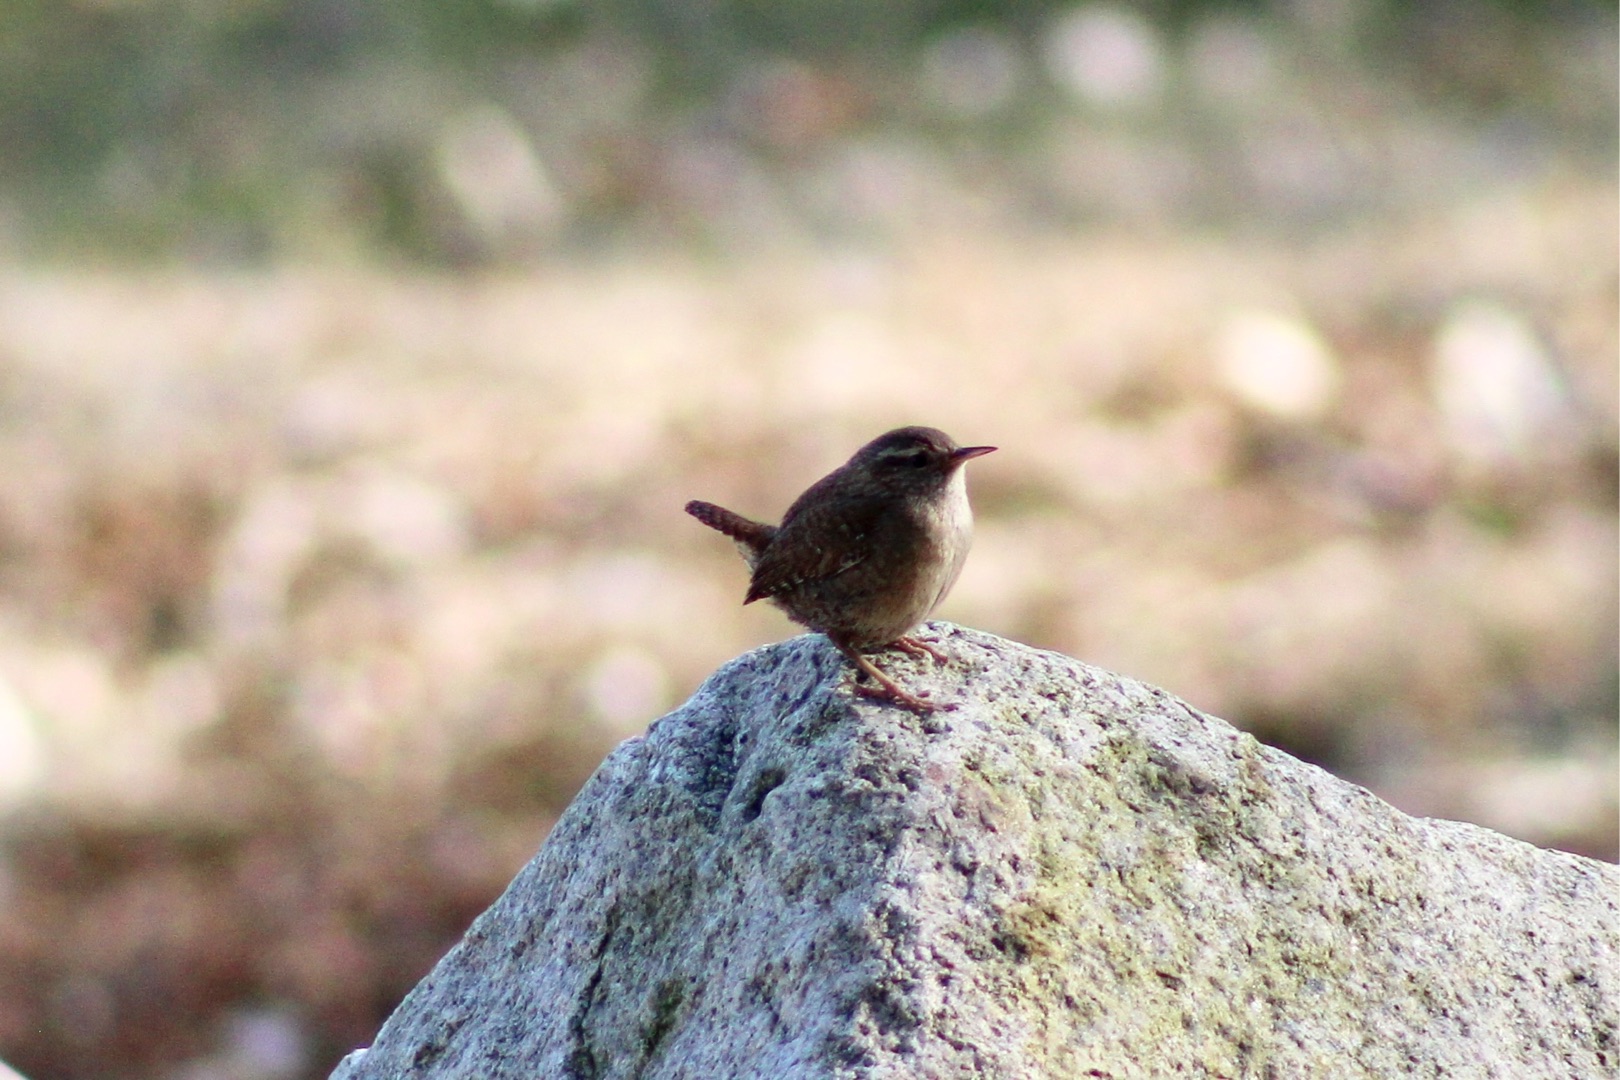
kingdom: Animalia
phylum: Chordata
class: Aves
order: Passeriformes
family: Troglodytidae
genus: Troglodytes
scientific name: Troglodytes troglodytes
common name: Gærdesmutte
